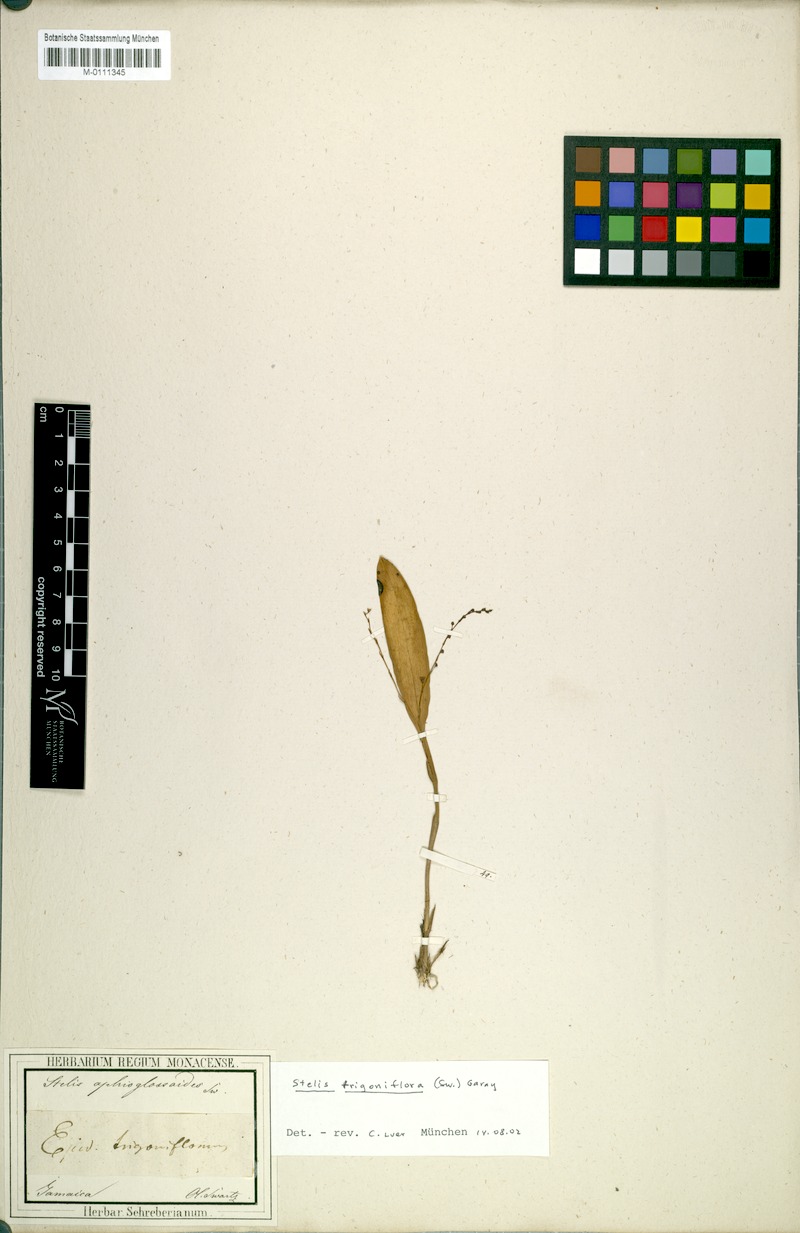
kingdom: Plantae
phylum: Tracheophyta
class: Liliopsida
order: Asparagales
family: Orchidaceae
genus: Stelis
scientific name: Stelis ophioglossoides
